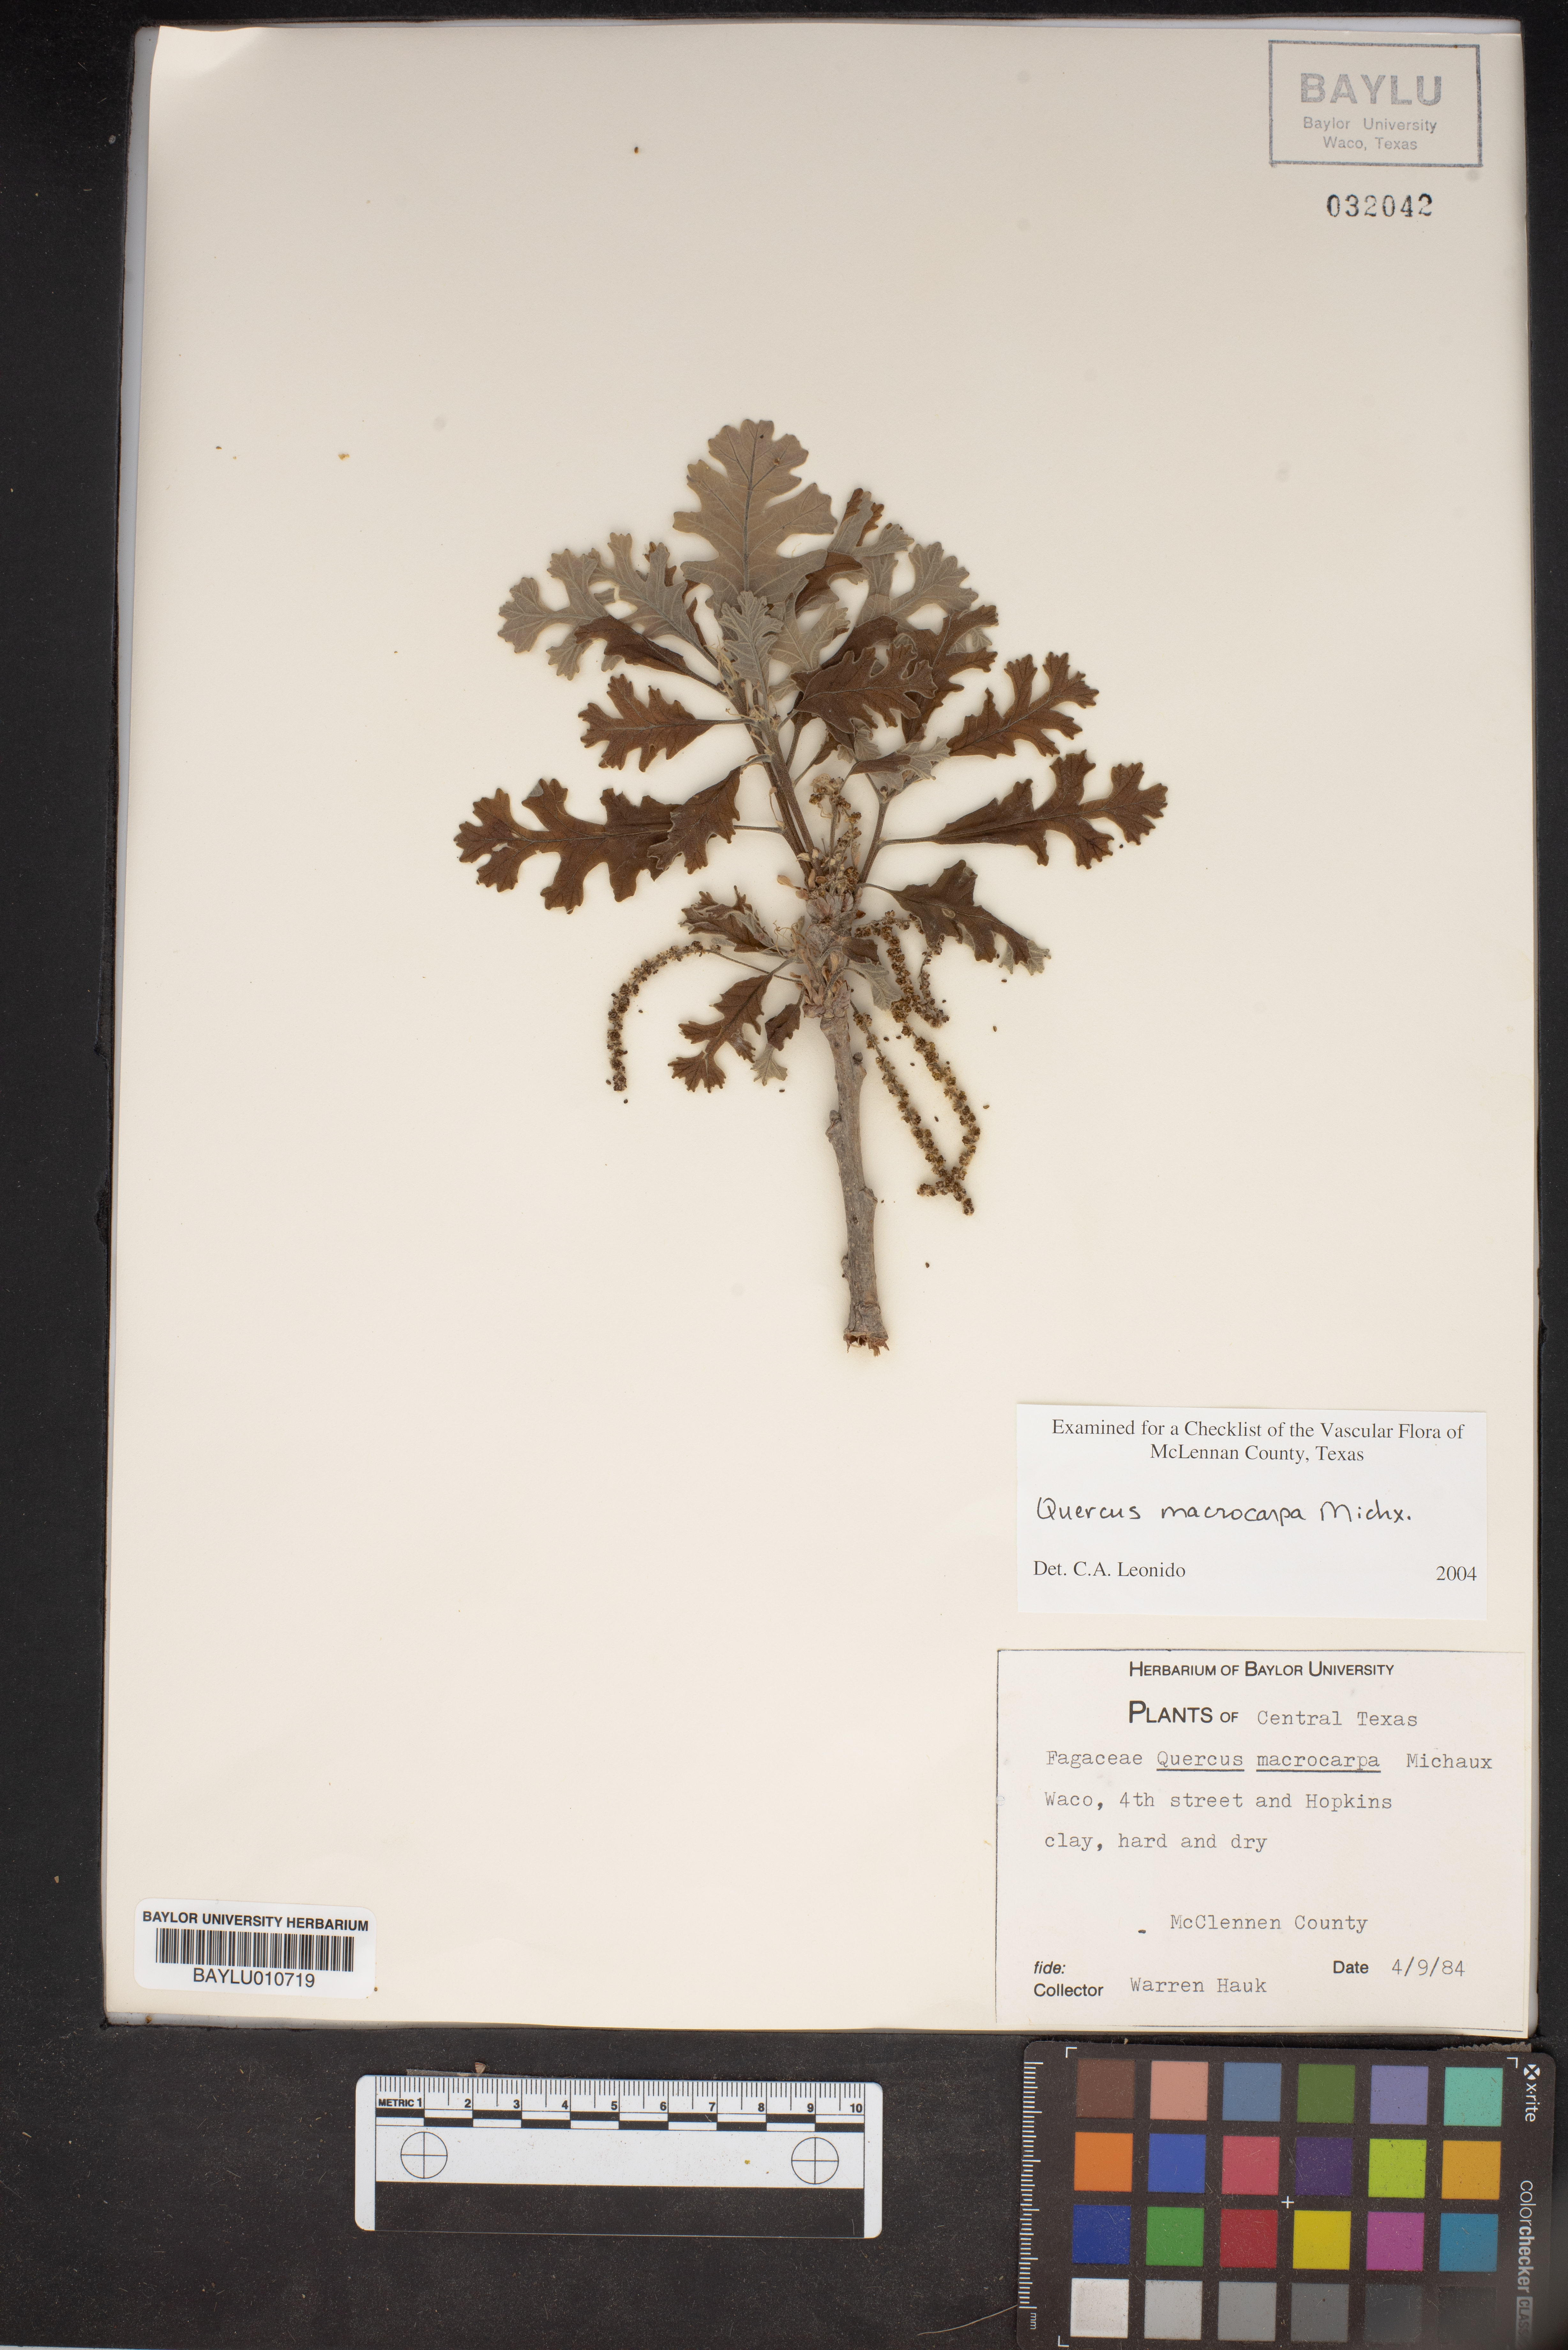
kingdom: Plantae
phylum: Tracheophyta
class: Magnoliopsida
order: Fagales
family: Fagaceae
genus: Quercus
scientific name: Quercus macrocarpa
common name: Bur oak
